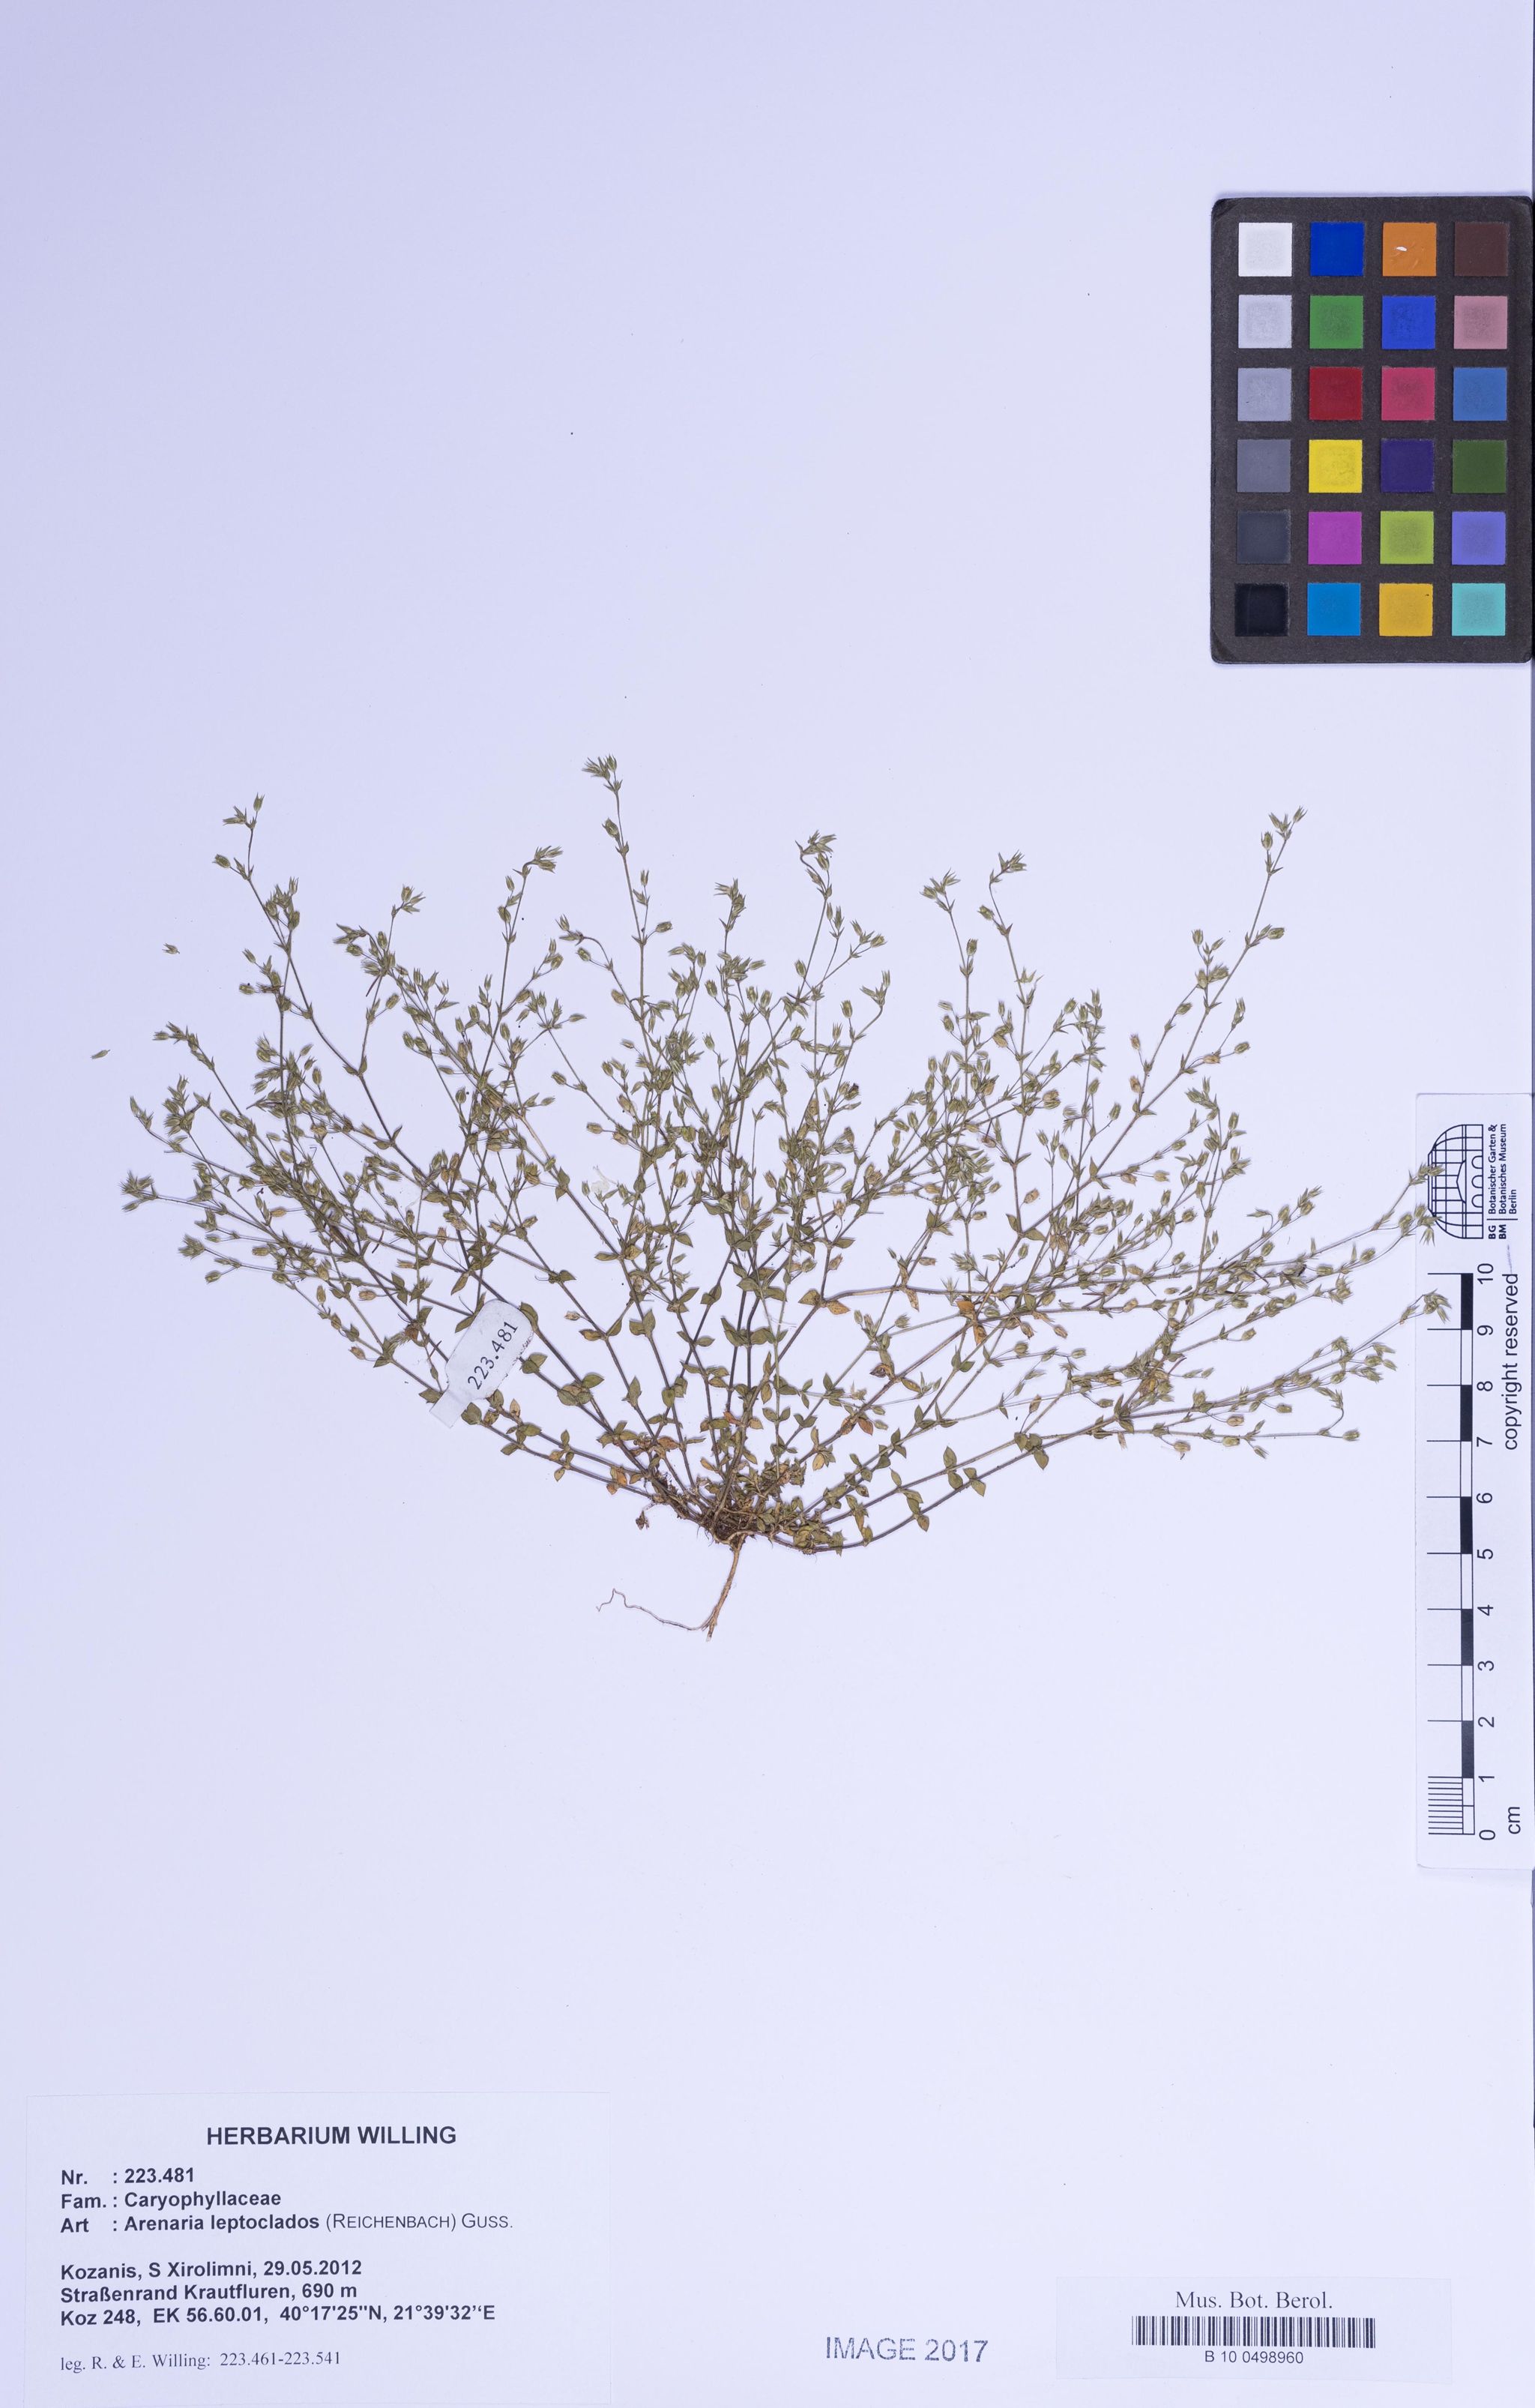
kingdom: Plantae
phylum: Tracheophyta
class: Magnoliopsida
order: Caryophyllales
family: Caryophyllaceae
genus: Arenaria
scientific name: Arenaria leptoclados
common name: Thyme-leaved sandwort
